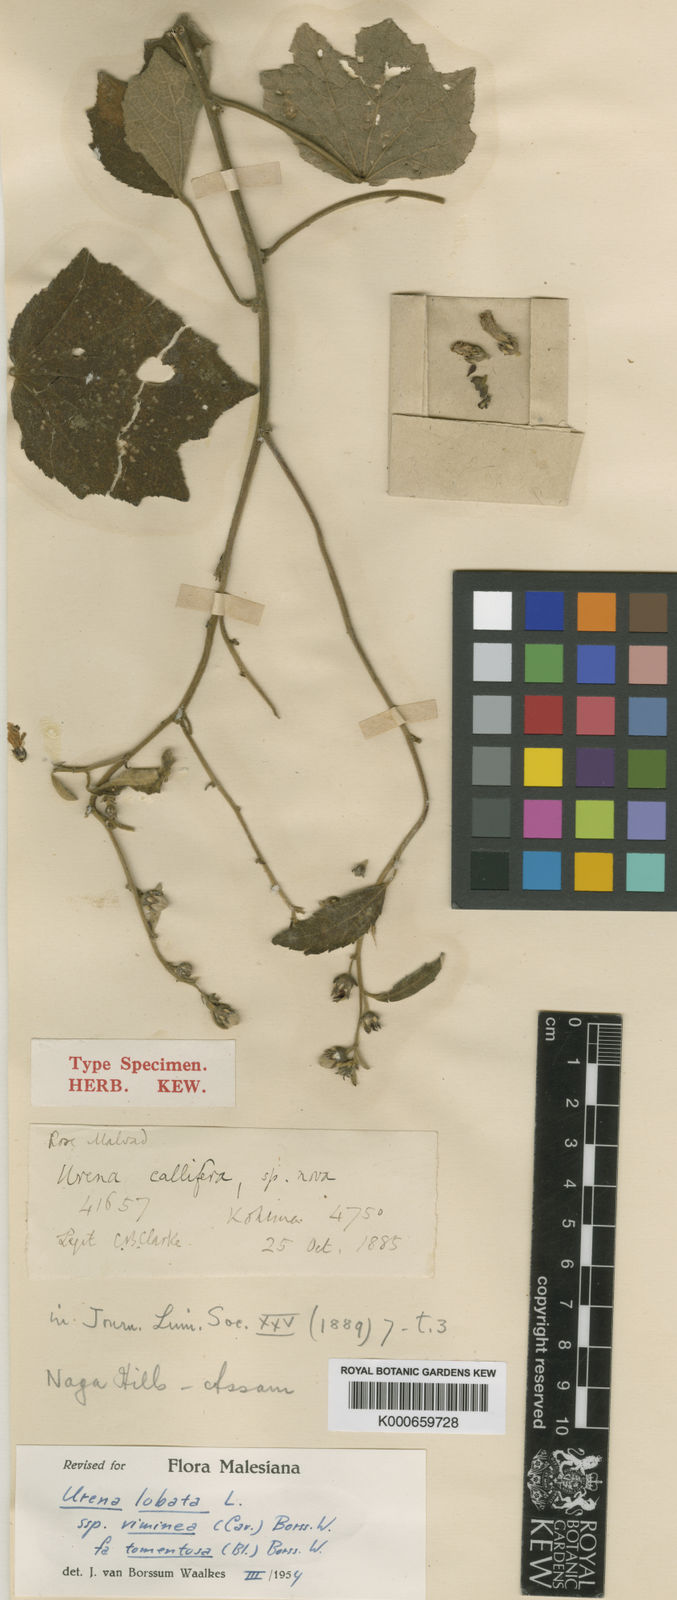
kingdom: Plantae
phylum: Tracheophyta
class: Magnoliopsida
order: Malvales
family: Malvaceae
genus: Urena
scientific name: Urena lobata
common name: Caesarweed
